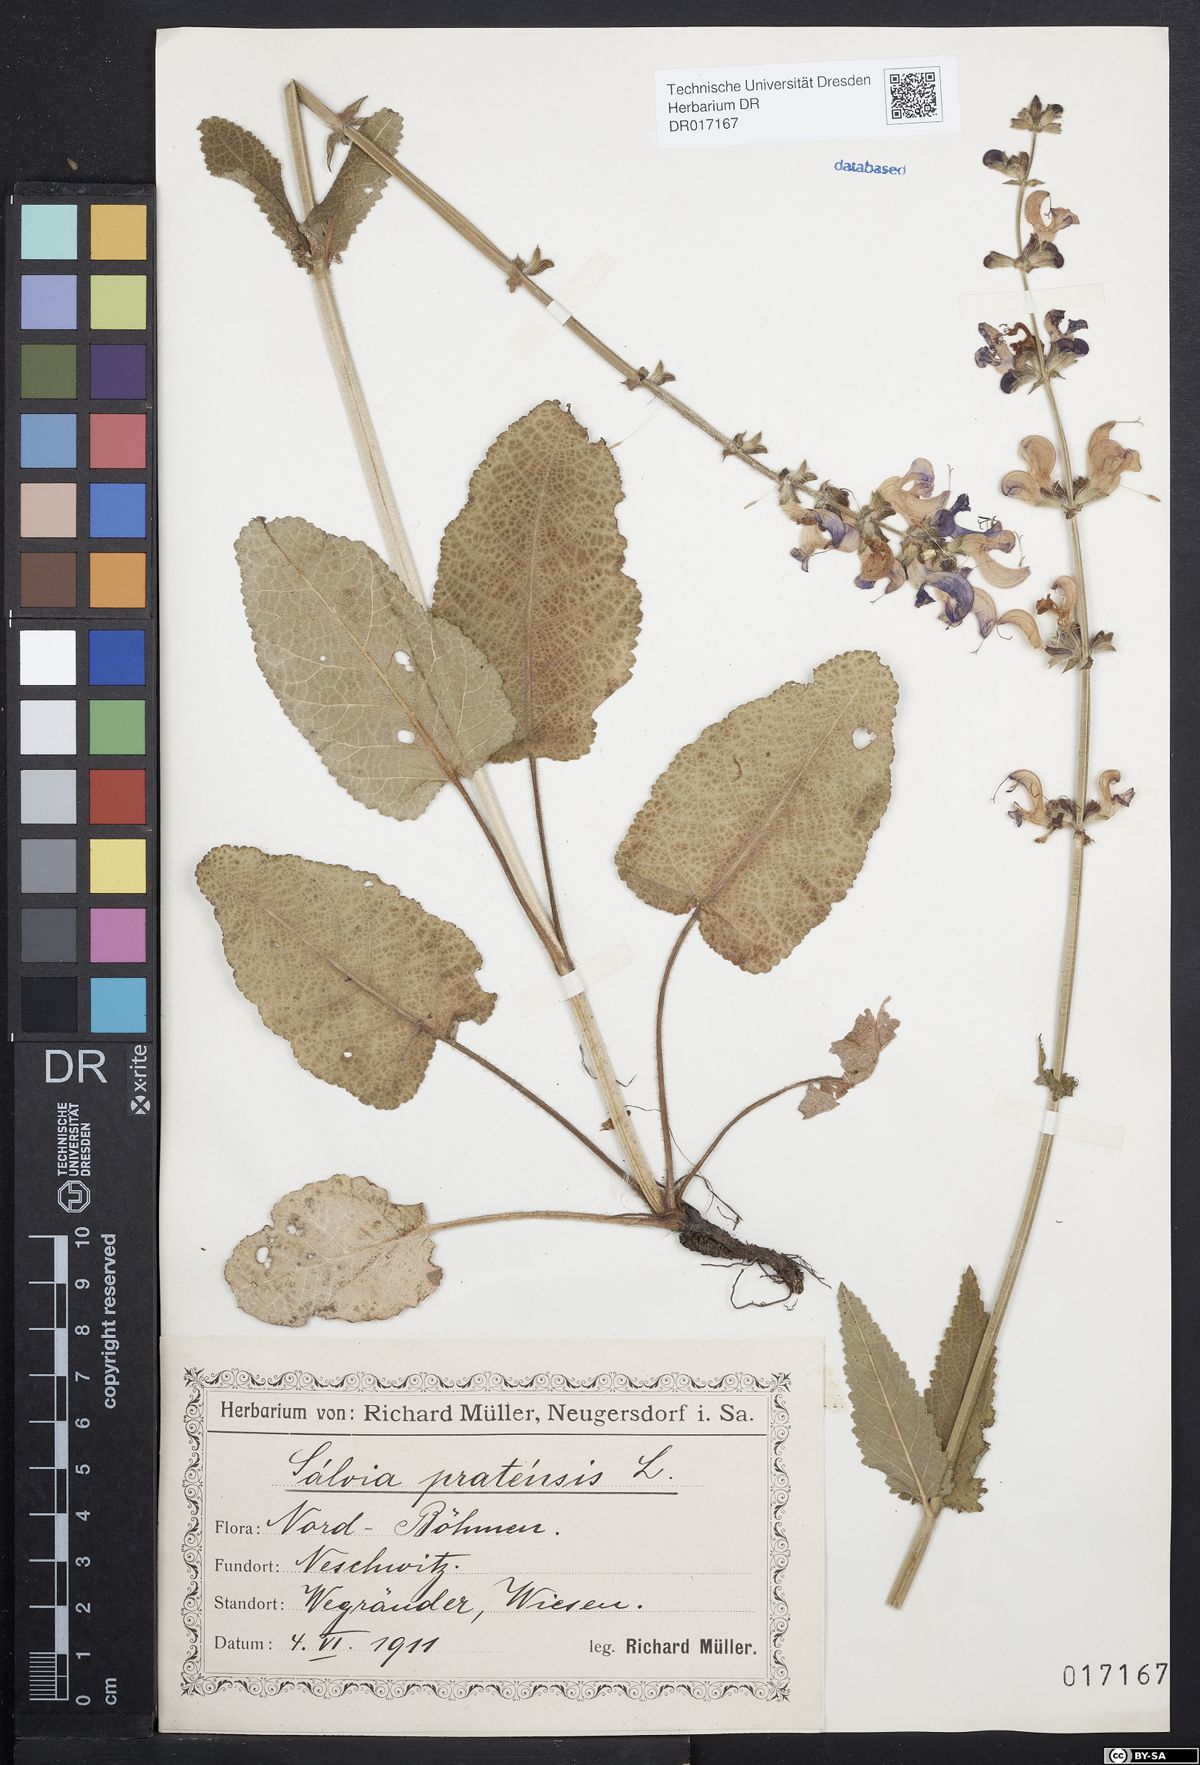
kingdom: Plantae
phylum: Tracheophyta
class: Magnoliopsida
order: Lamiales
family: Lamiaceae
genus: Salvia
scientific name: Salvia pratensis
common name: Meadow sage
